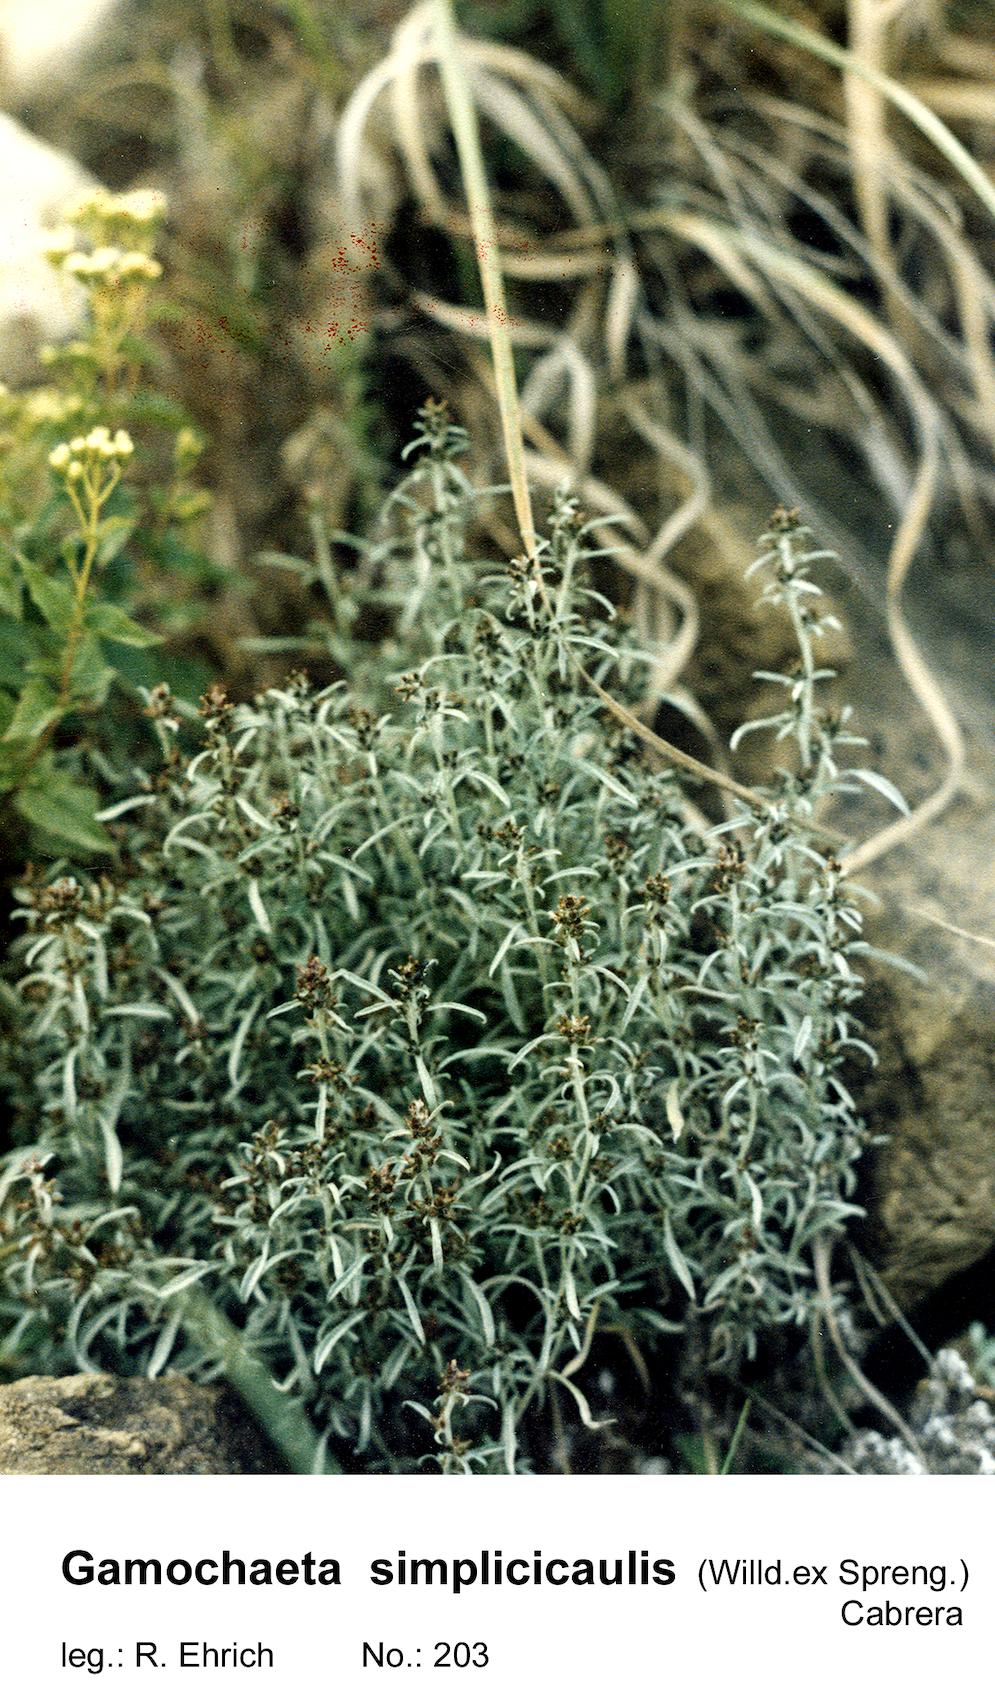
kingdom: Plantae
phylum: Tracheophyta
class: Magnoliopsida
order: Asterales
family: Asteraceae
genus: Gamochaeta
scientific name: Gamochaeta simplicicaulis
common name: Simple-stem everlasting
